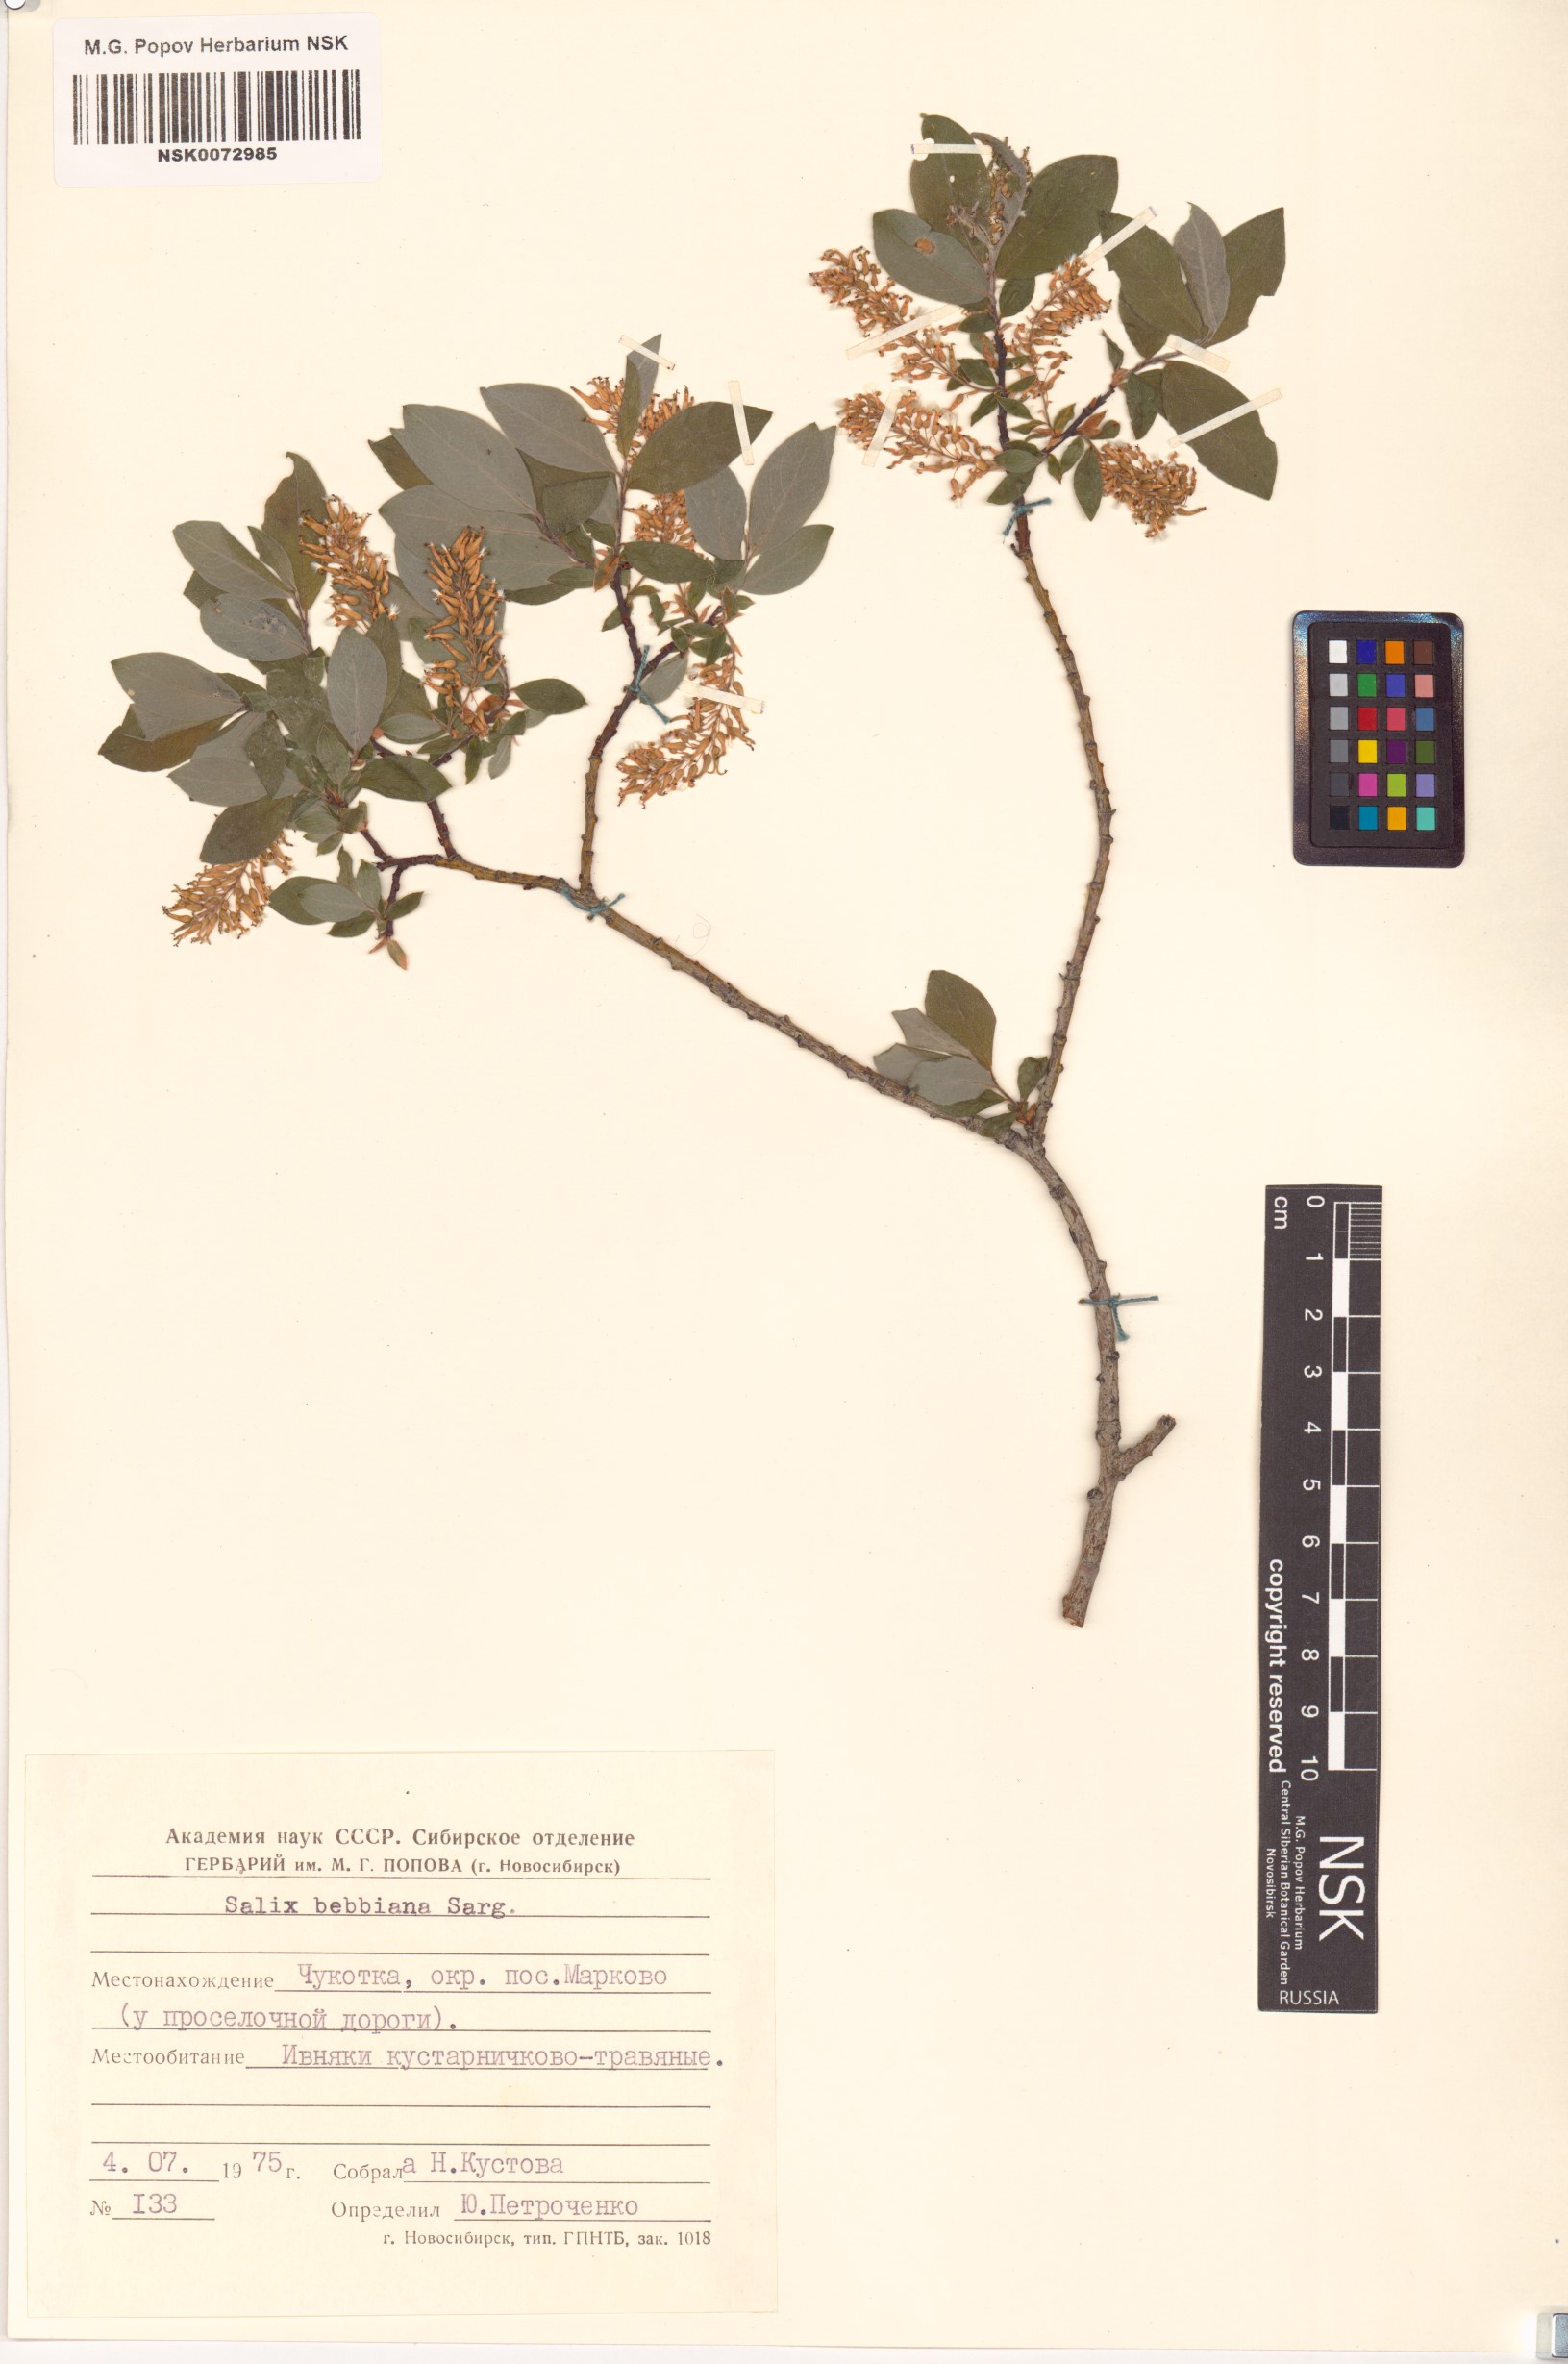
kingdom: Plantae
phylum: Tracheophyta
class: Magnoliopsida
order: Malpighiales
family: Salicaceae
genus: Salix
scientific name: Salix bebbiana
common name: Bebb's willow
